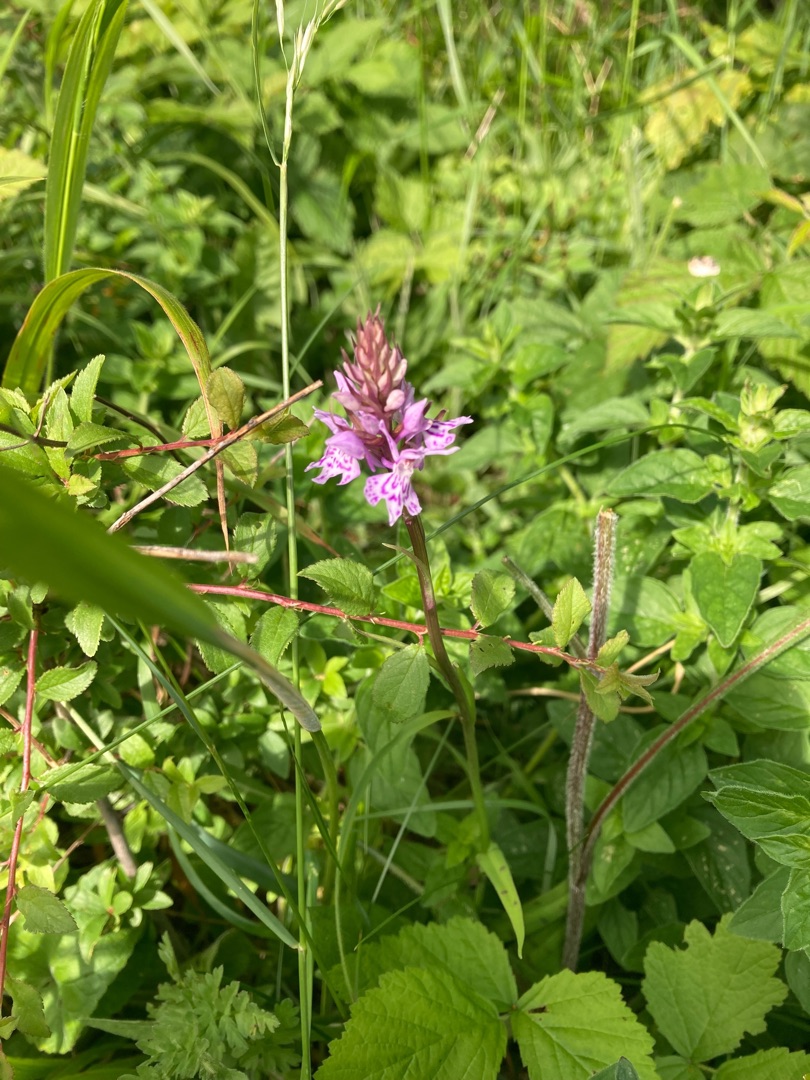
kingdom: Plantae
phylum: Tracheophyta
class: Liliopsida
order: Asparagales
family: Orchidaceae
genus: Dactylorhiza
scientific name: Dactylorhiza maculata
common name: Skov-gøgeurt
